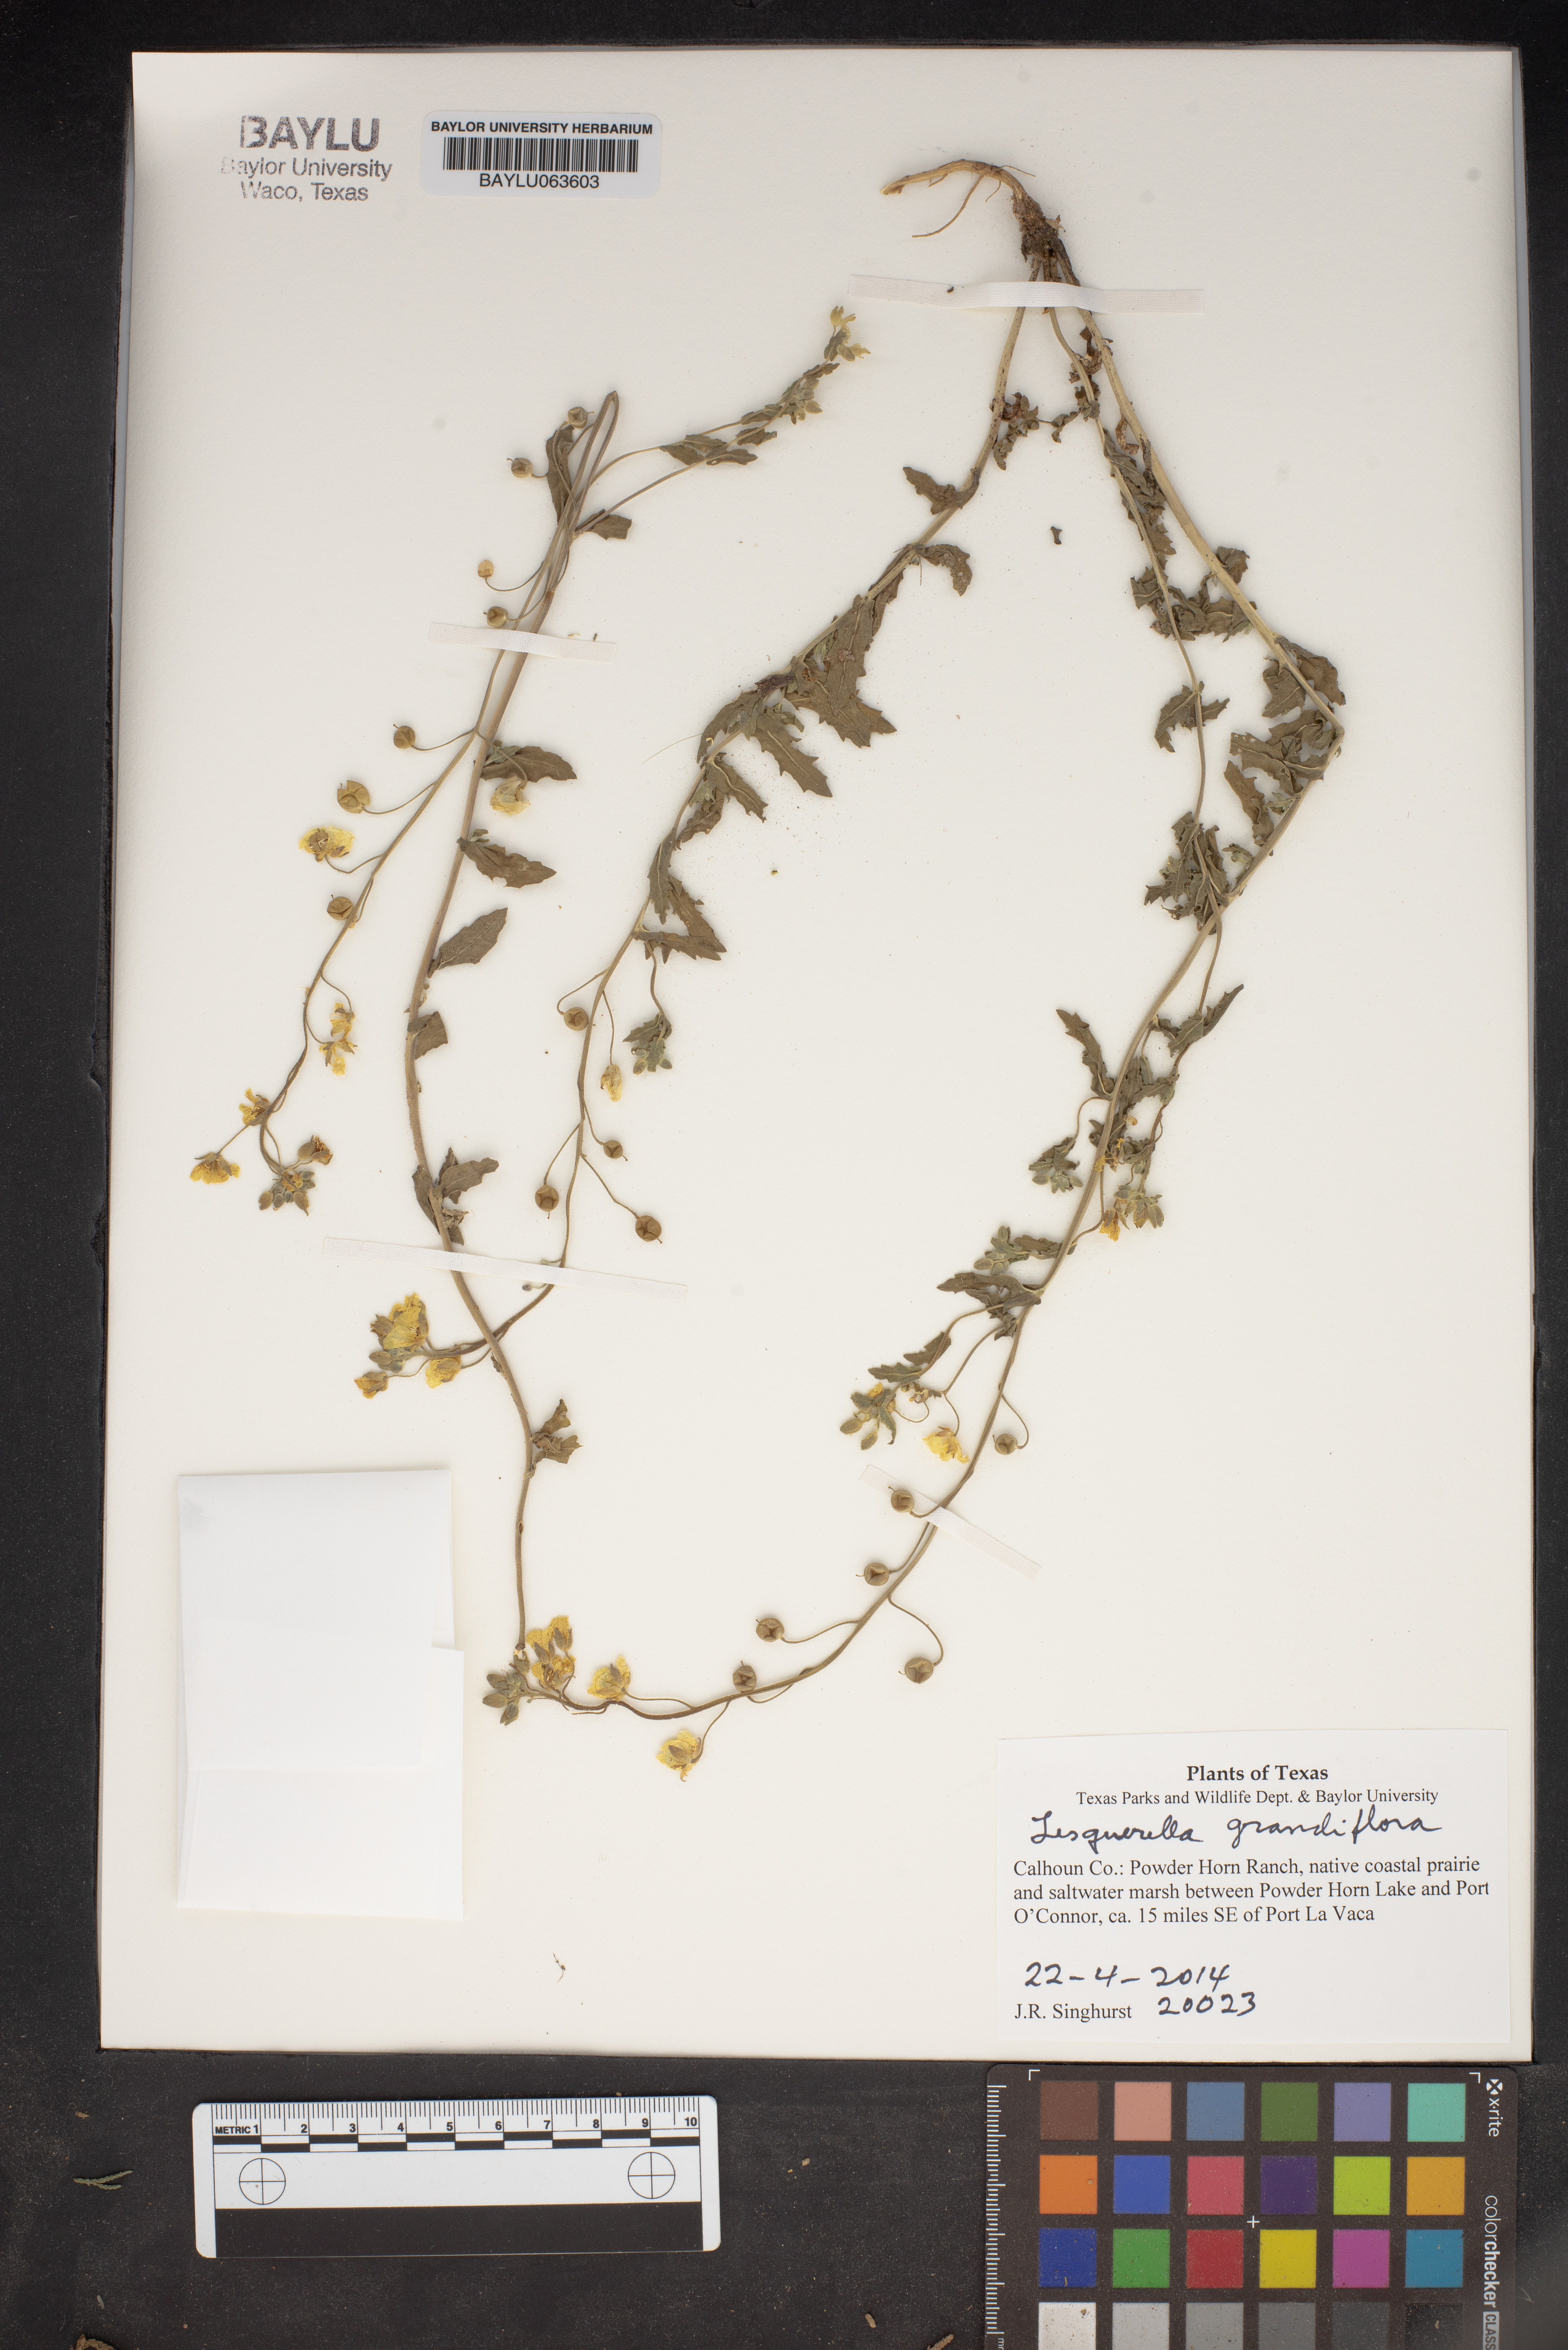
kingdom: Plantae
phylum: Tracheophyta
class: Magnoliopsida
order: Brassicales
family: Brassicaceae
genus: Paysonia
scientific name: Paysonia grandiflora
